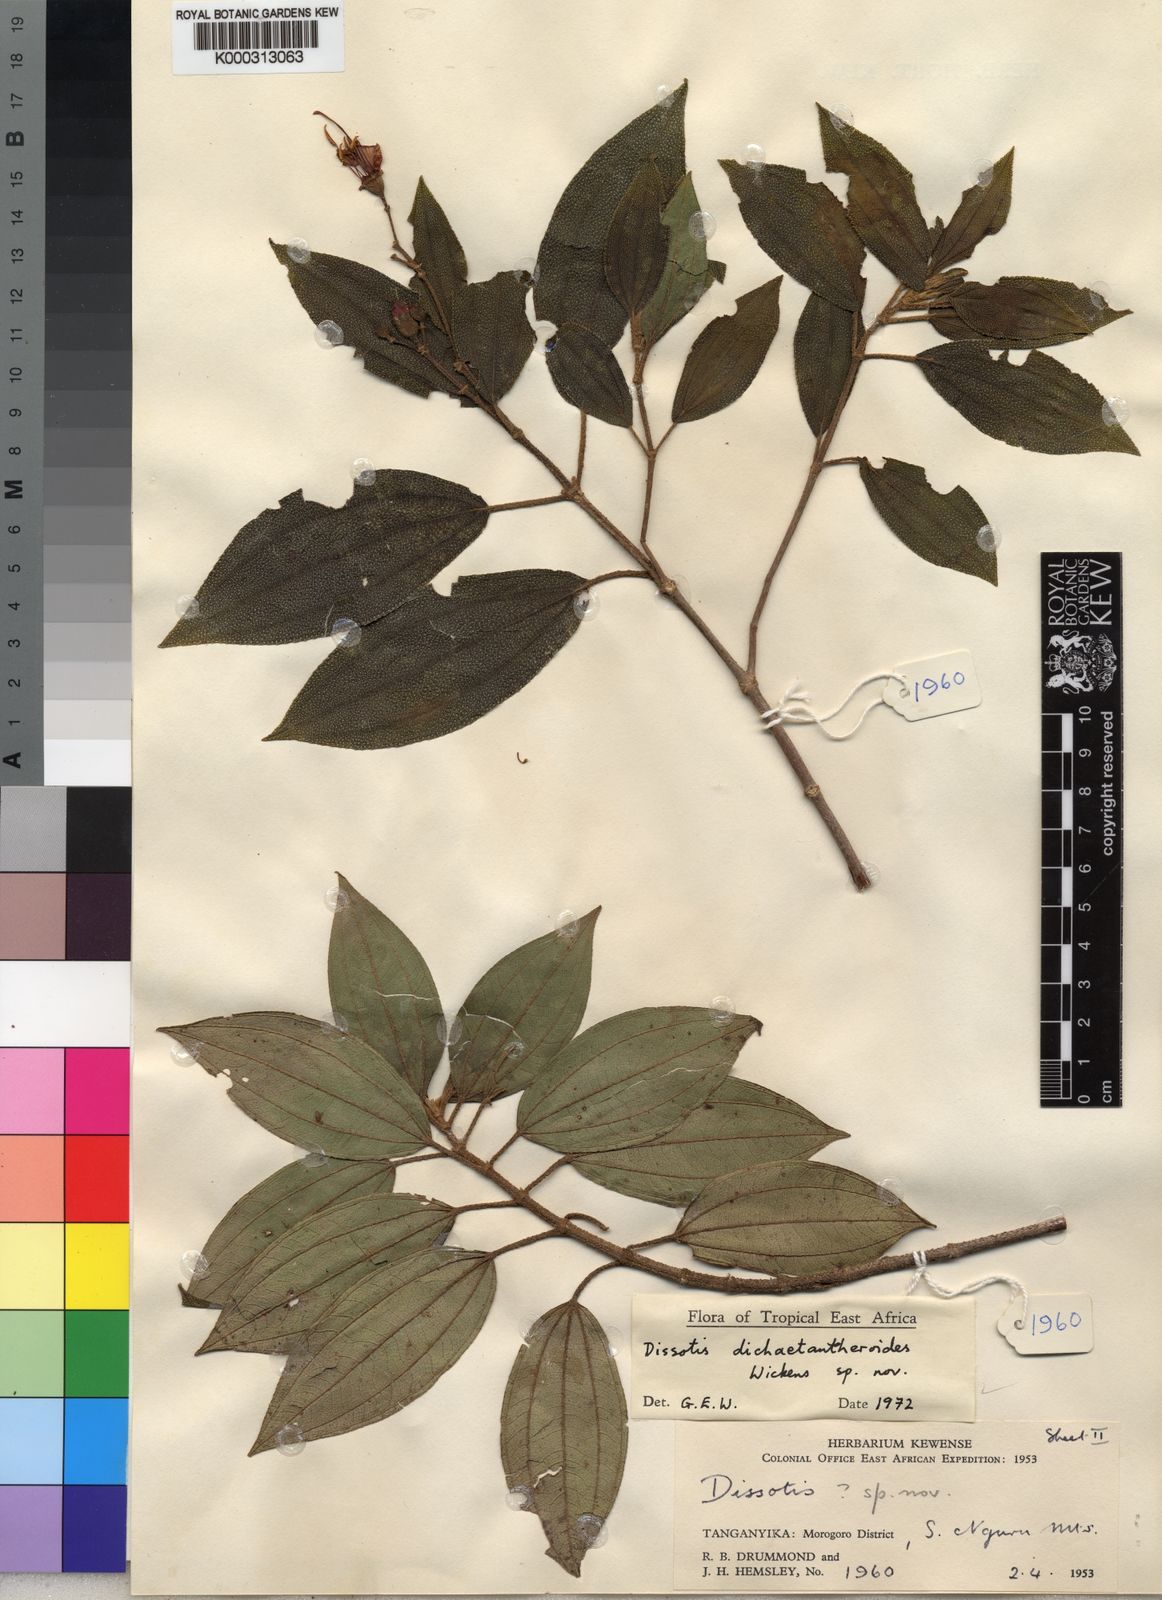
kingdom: Plantae
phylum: Tracheophyta
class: Magnoliopsida
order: Myrtales
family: Melastomataceae
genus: Dissotidendron
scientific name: Dissotidendron dichaetantheroides
